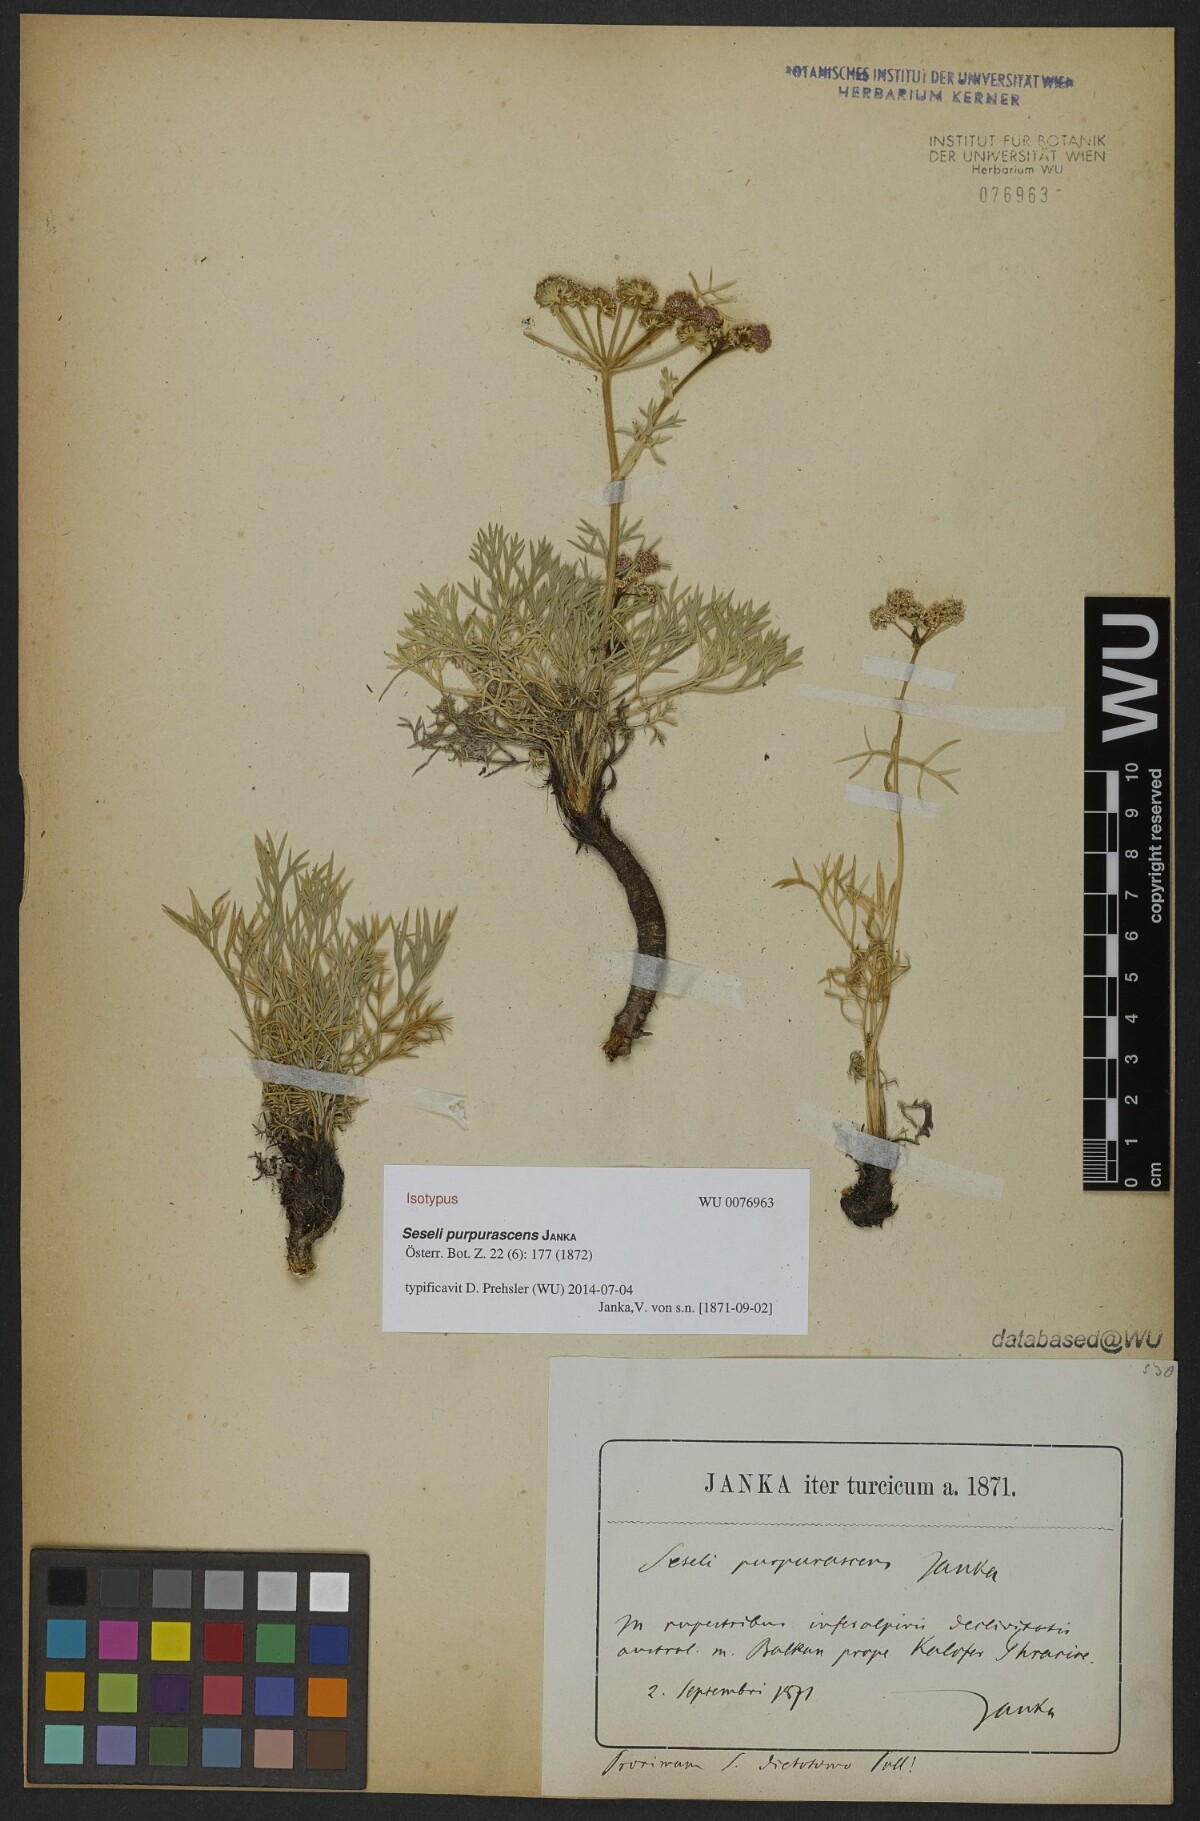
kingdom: Plantae
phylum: Tracheophyta
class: Magnoliopsida
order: Apiales
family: Apiaceae
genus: Seseli
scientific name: Seseli rigidum
